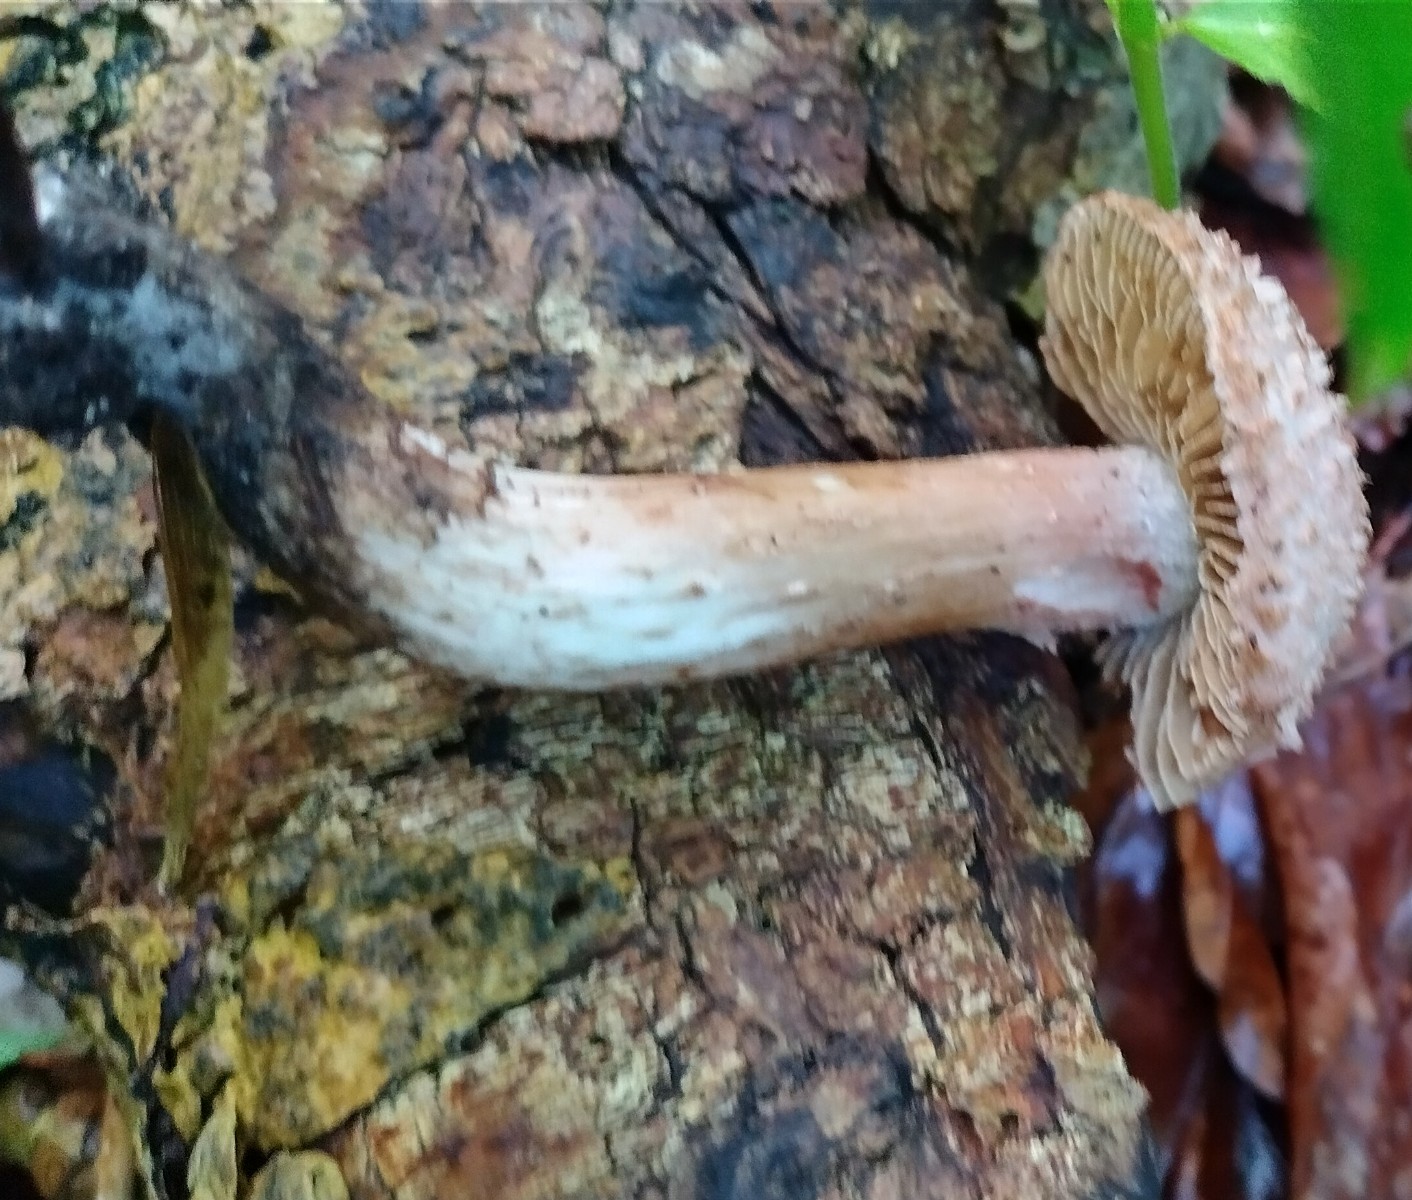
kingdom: Fungi
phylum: Basidiomycota
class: Agaricomycetes
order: Agaricales
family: Inocybaceae
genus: Inosperma
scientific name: Inosperma bongardii
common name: Bongards trævlhat
